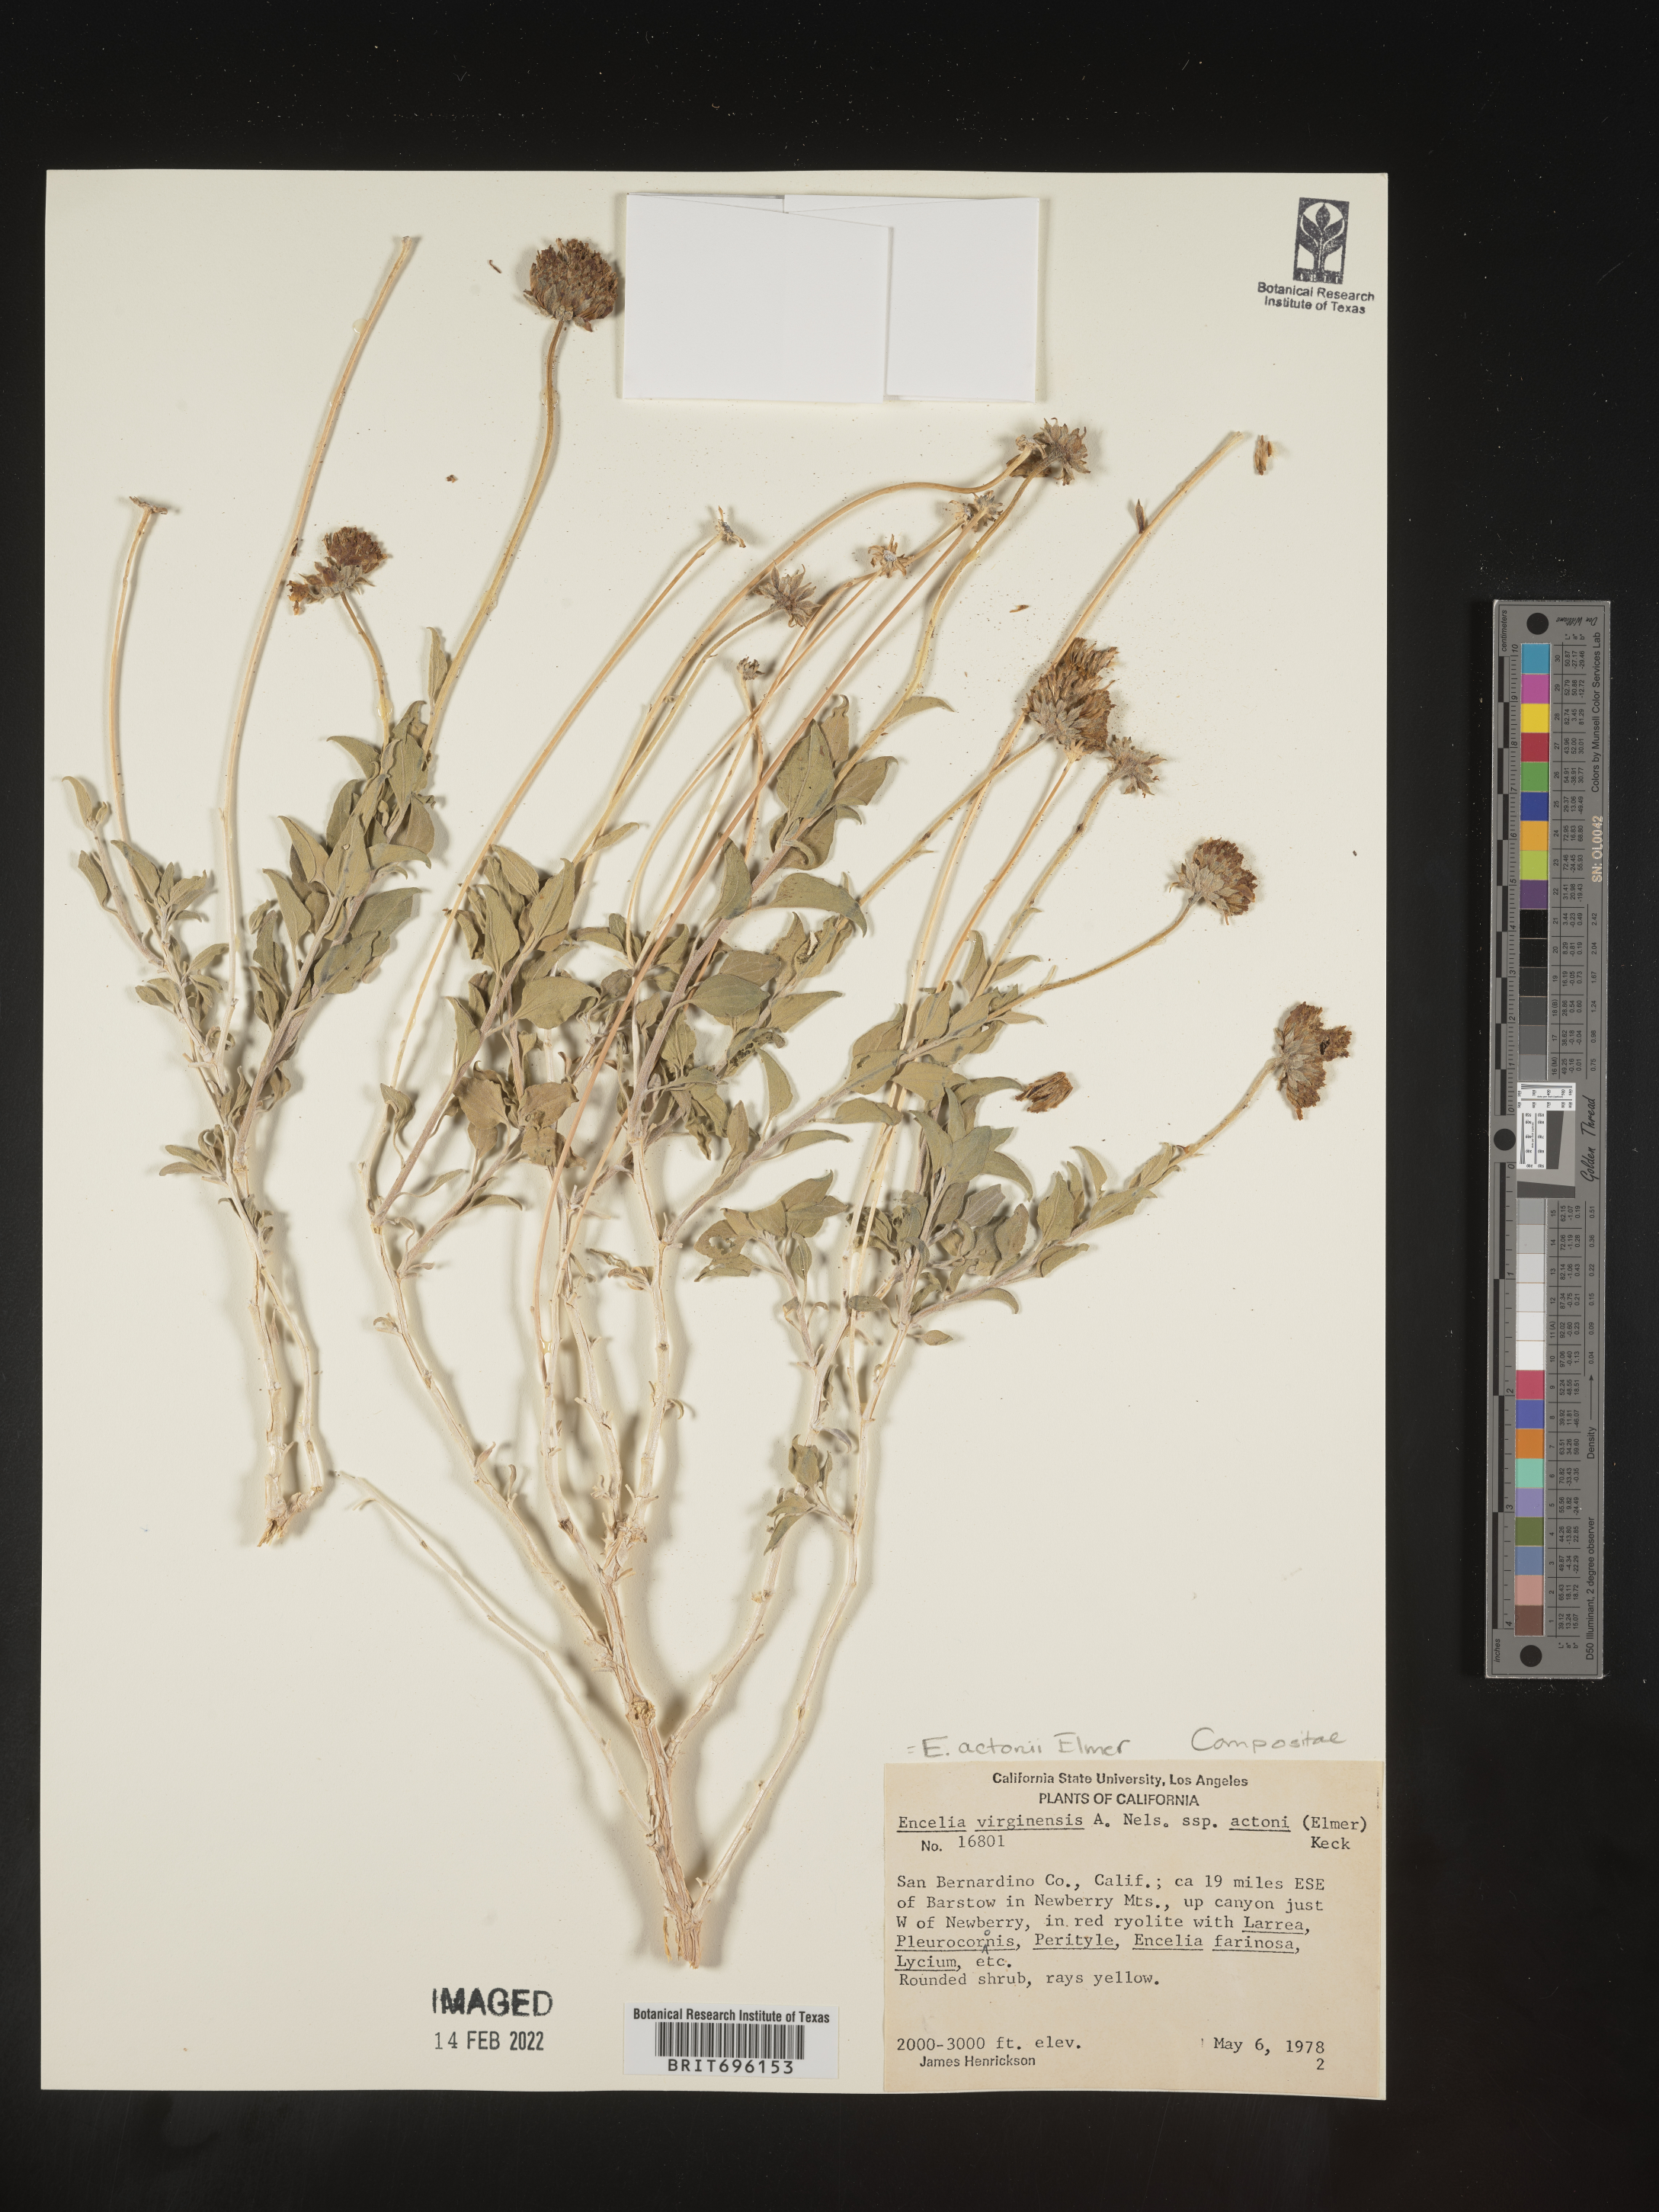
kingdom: Plantae
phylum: Tracheophyta
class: Magnoliopsida
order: Asterales
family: Asteraceae
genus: Encelia
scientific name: Encelia actoni
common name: Acton encelia
